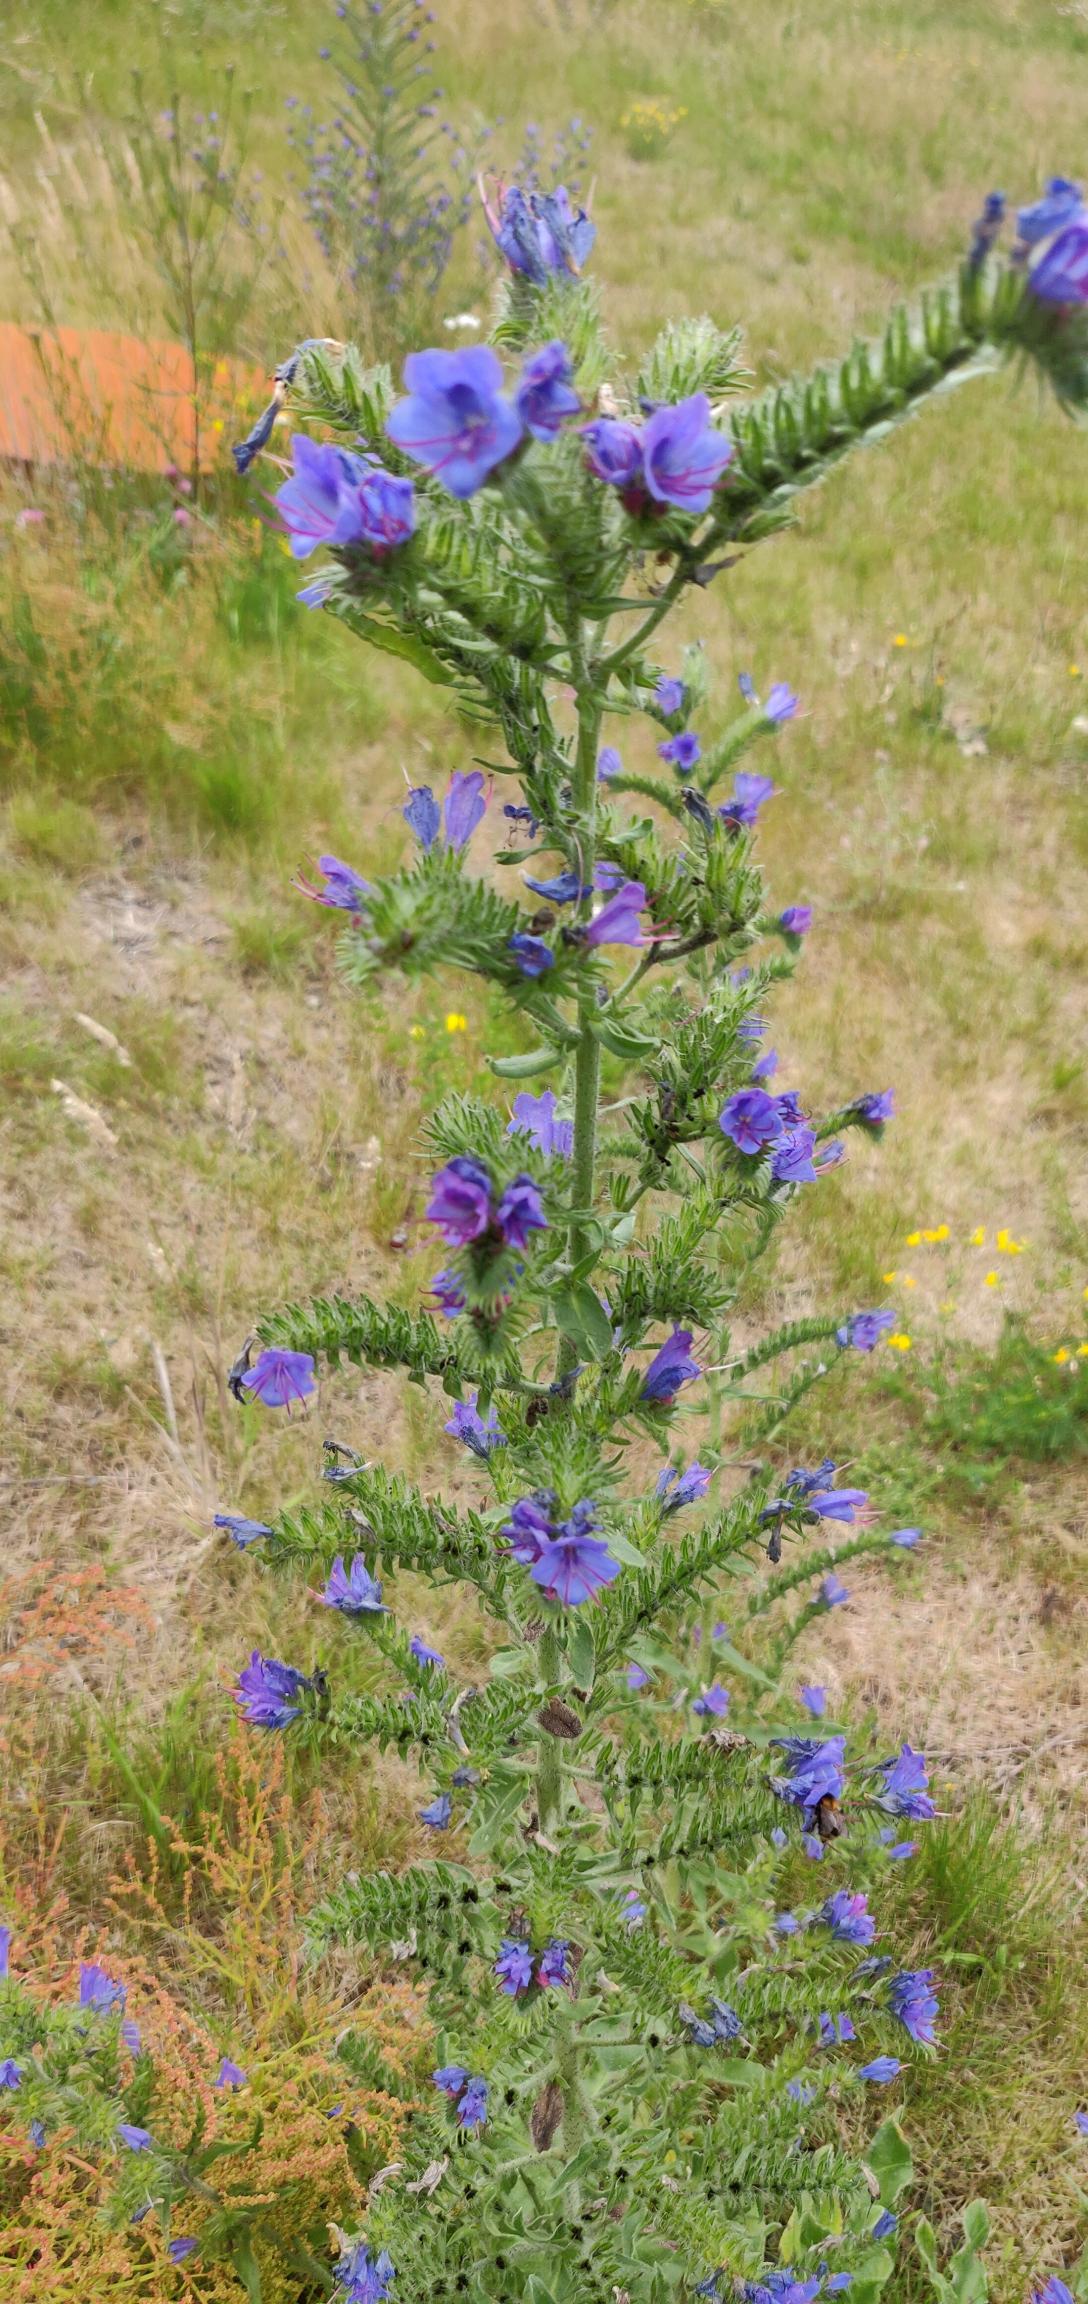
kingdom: Plantae
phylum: Tracheophyta
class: Magnoliopsida
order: Boraginales
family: Boraginaceae
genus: Echium
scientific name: Echium vulgare
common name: Slangehoved
